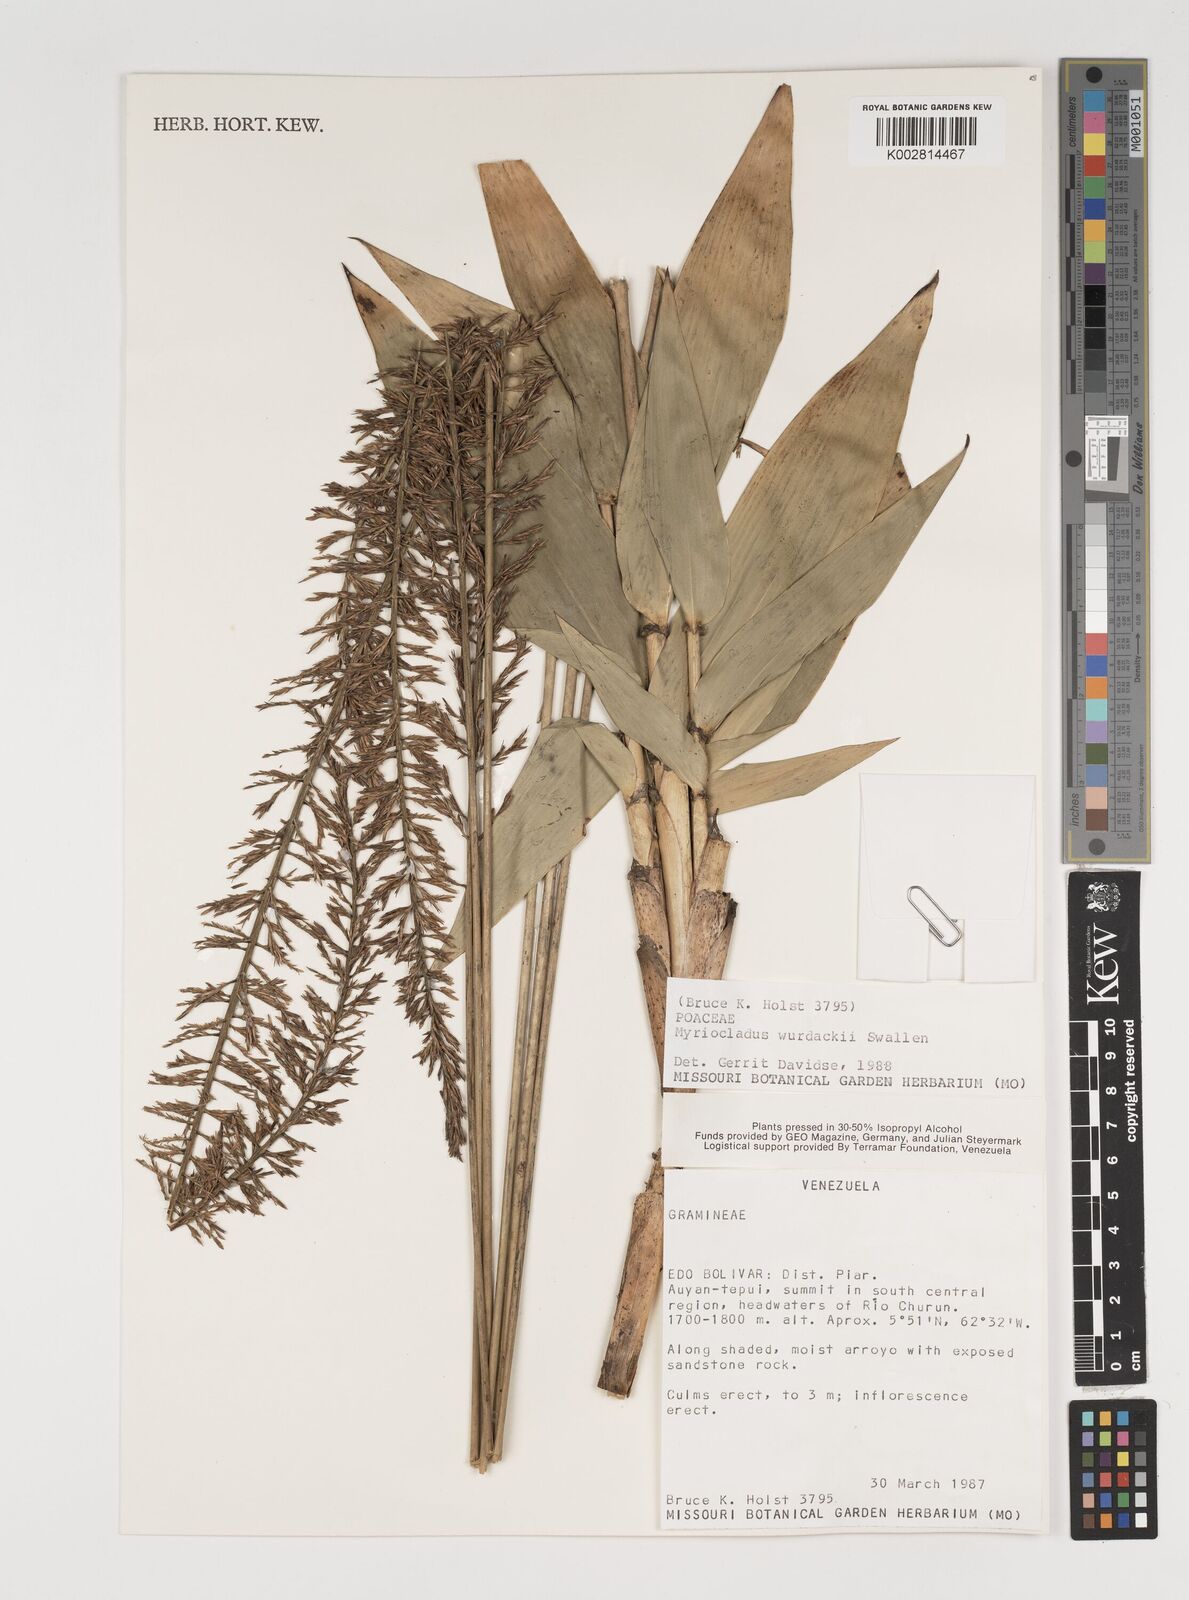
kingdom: Plantae
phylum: Tracheophyta
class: Liliopsida
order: Poales
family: Poaceae
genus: Myriocladus
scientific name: Myriocladus distantiflorus
